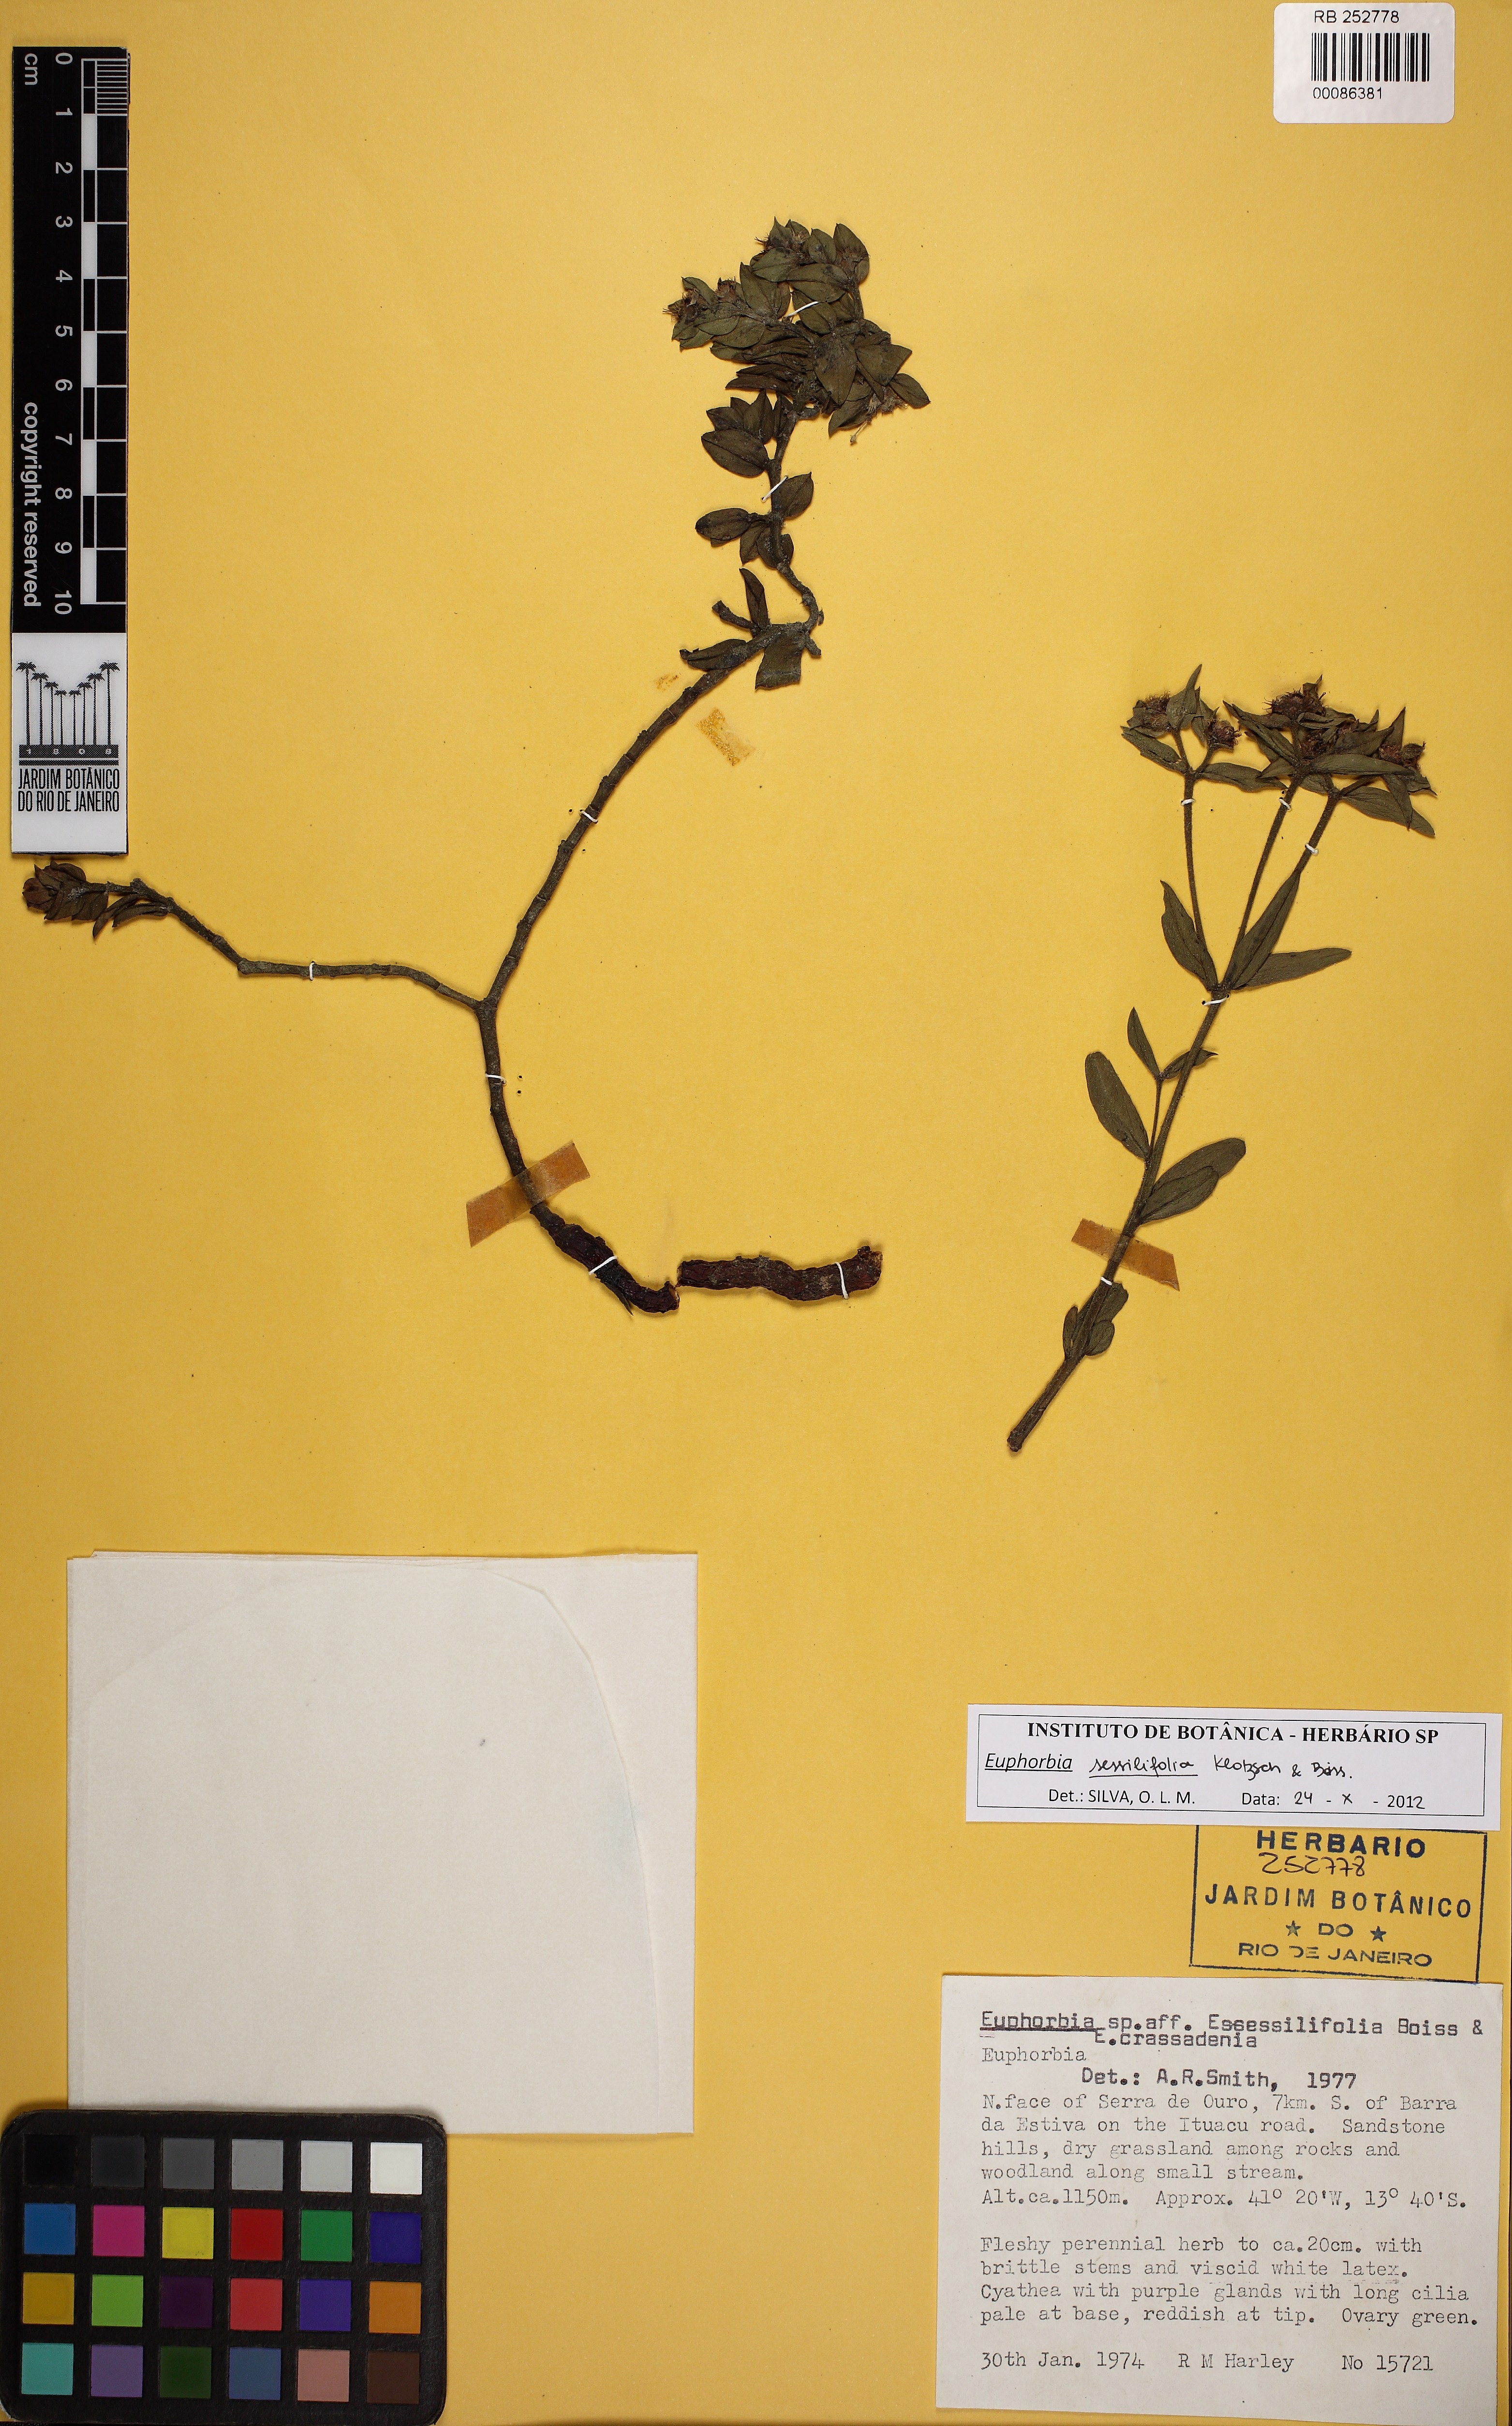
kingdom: Plantae
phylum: Tracheophyta
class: Magnoliopsida
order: Malpighiales
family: Euphorbiaceae
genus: Euphorbia
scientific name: Euphorbia sessilifolia
